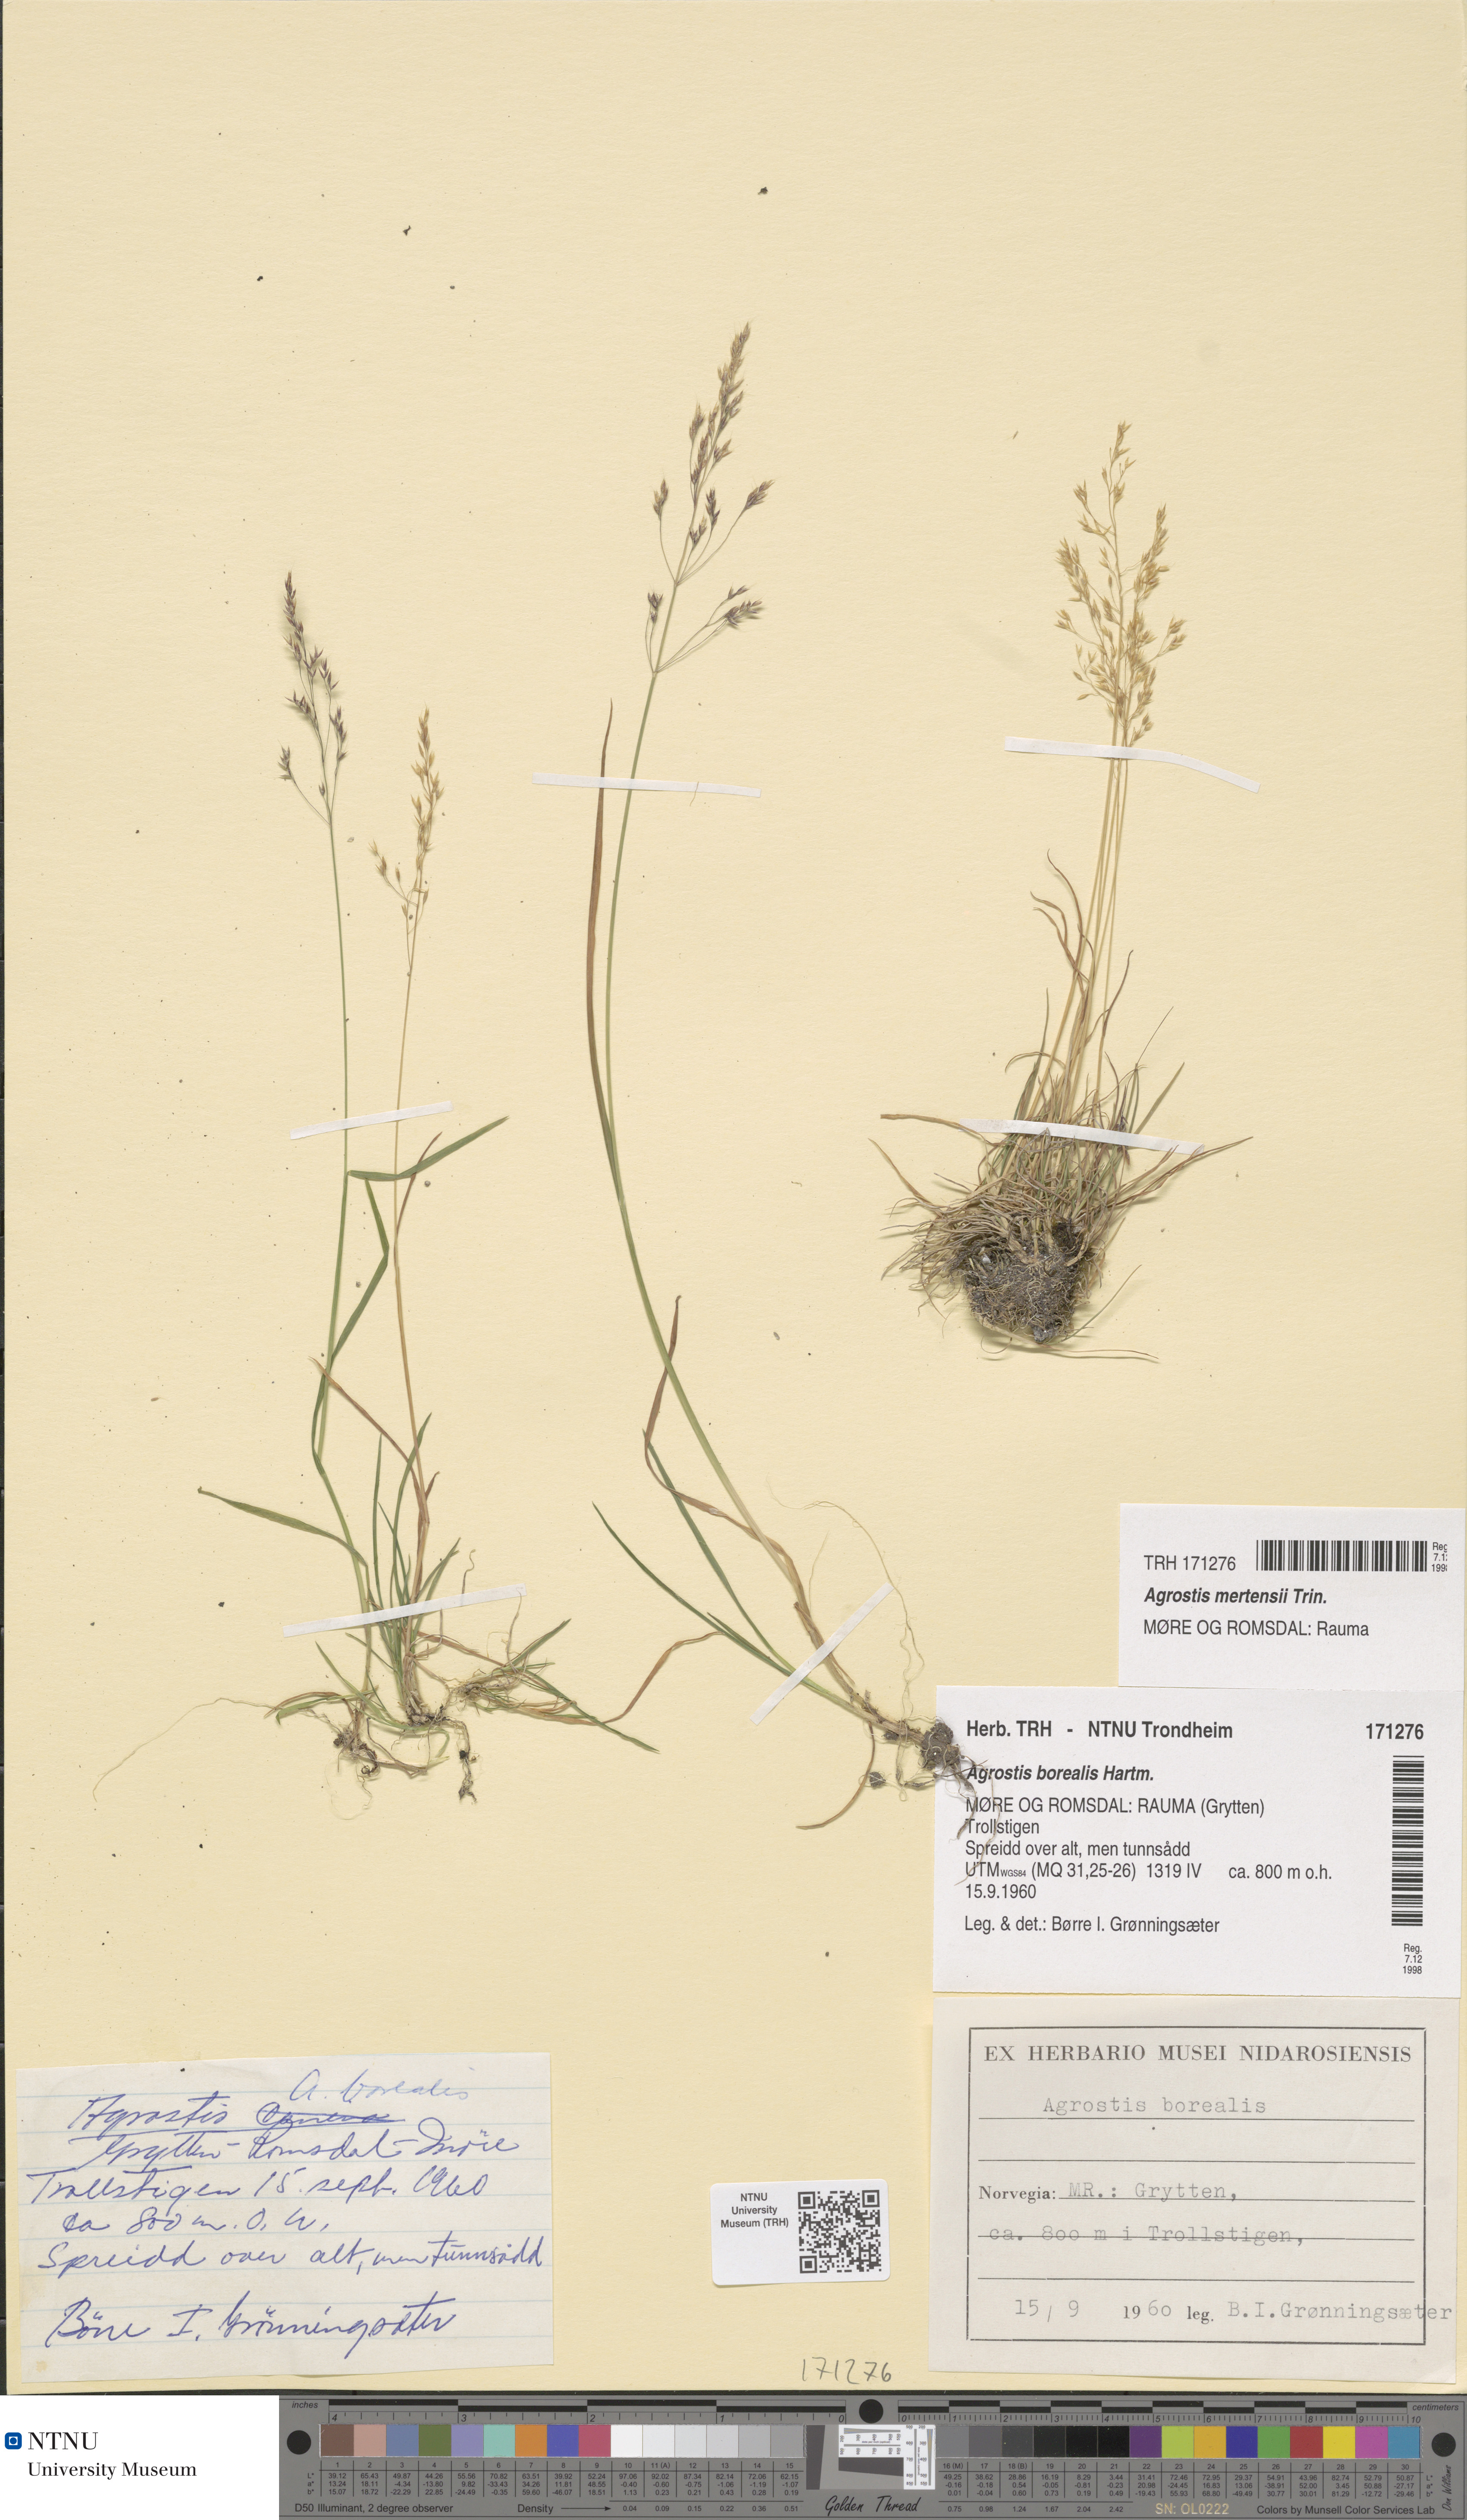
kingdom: Plantae
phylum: Tracheophyta
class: Liliopsida
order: Poales
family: Poaceae
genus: Agrostis
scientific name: Agrostis mertensii
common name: Northern bent
